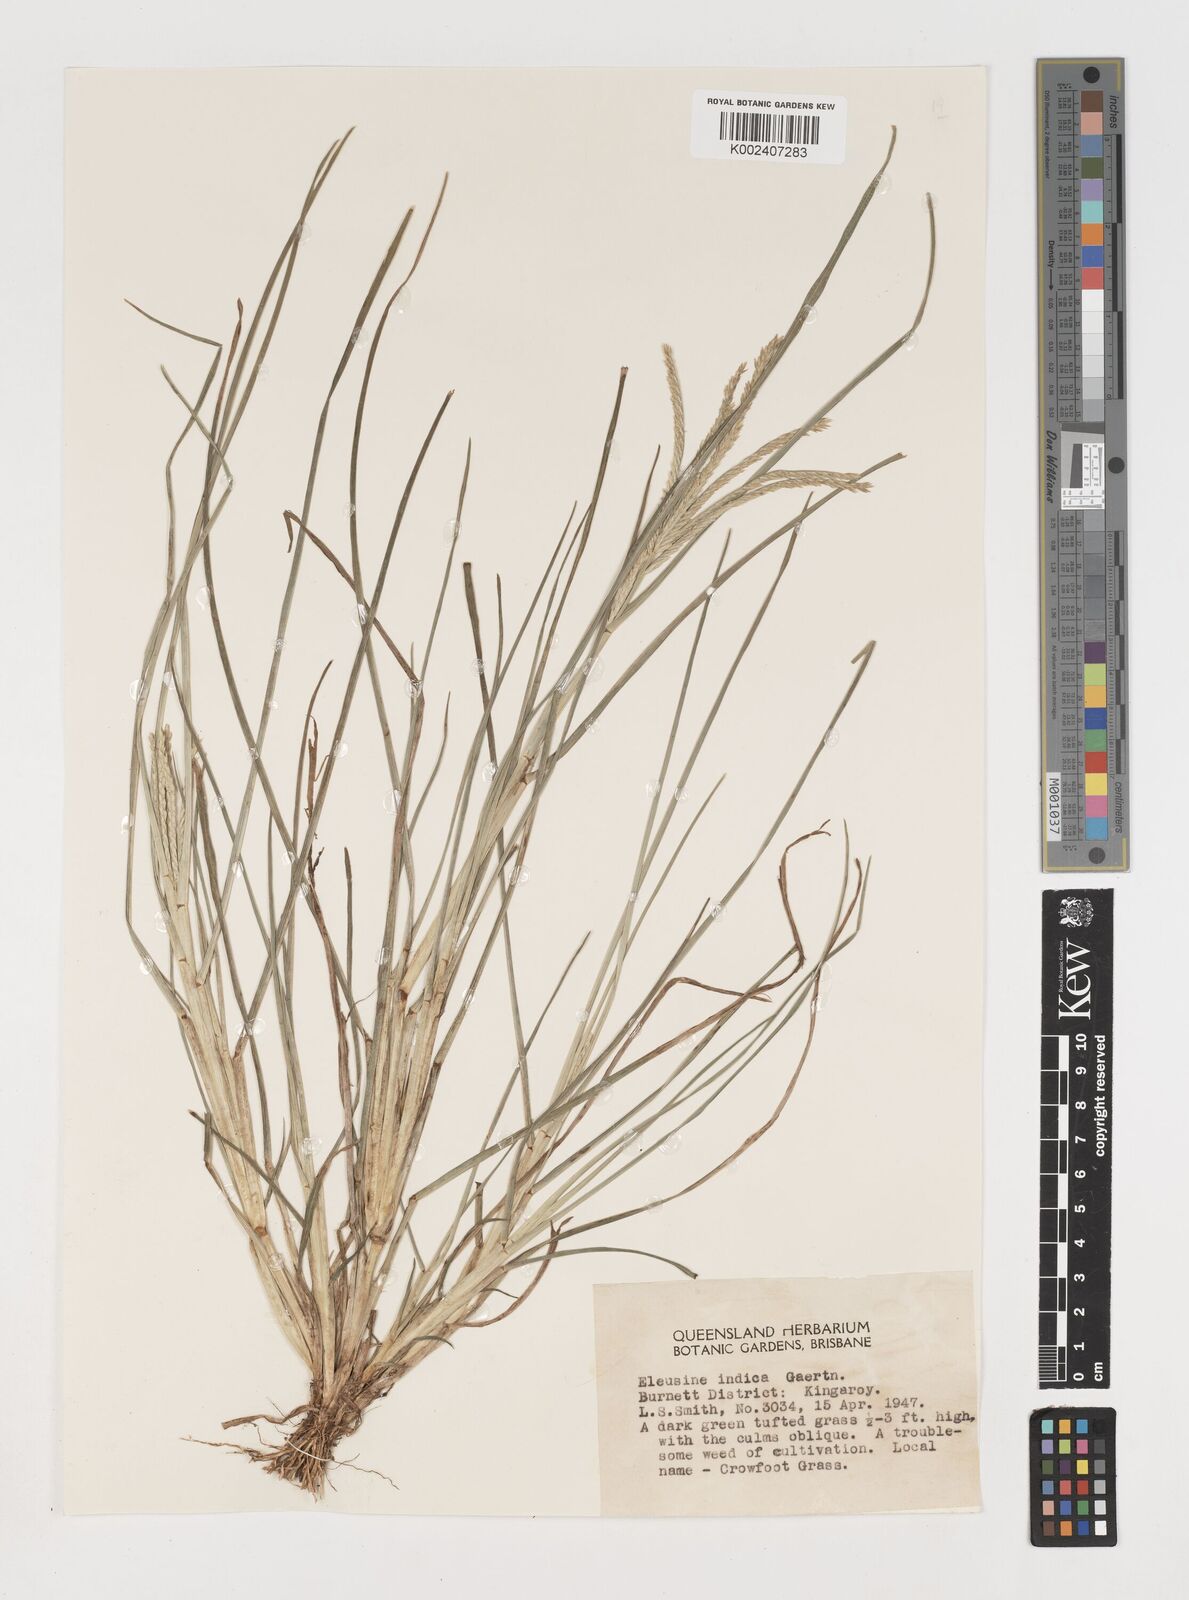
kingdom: Plantae
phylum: Tracheophyta
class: Liliopsida
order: Poales
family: Poaceae
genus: Eleusine
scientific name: Eleusine africana
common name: Wild african finger millet
